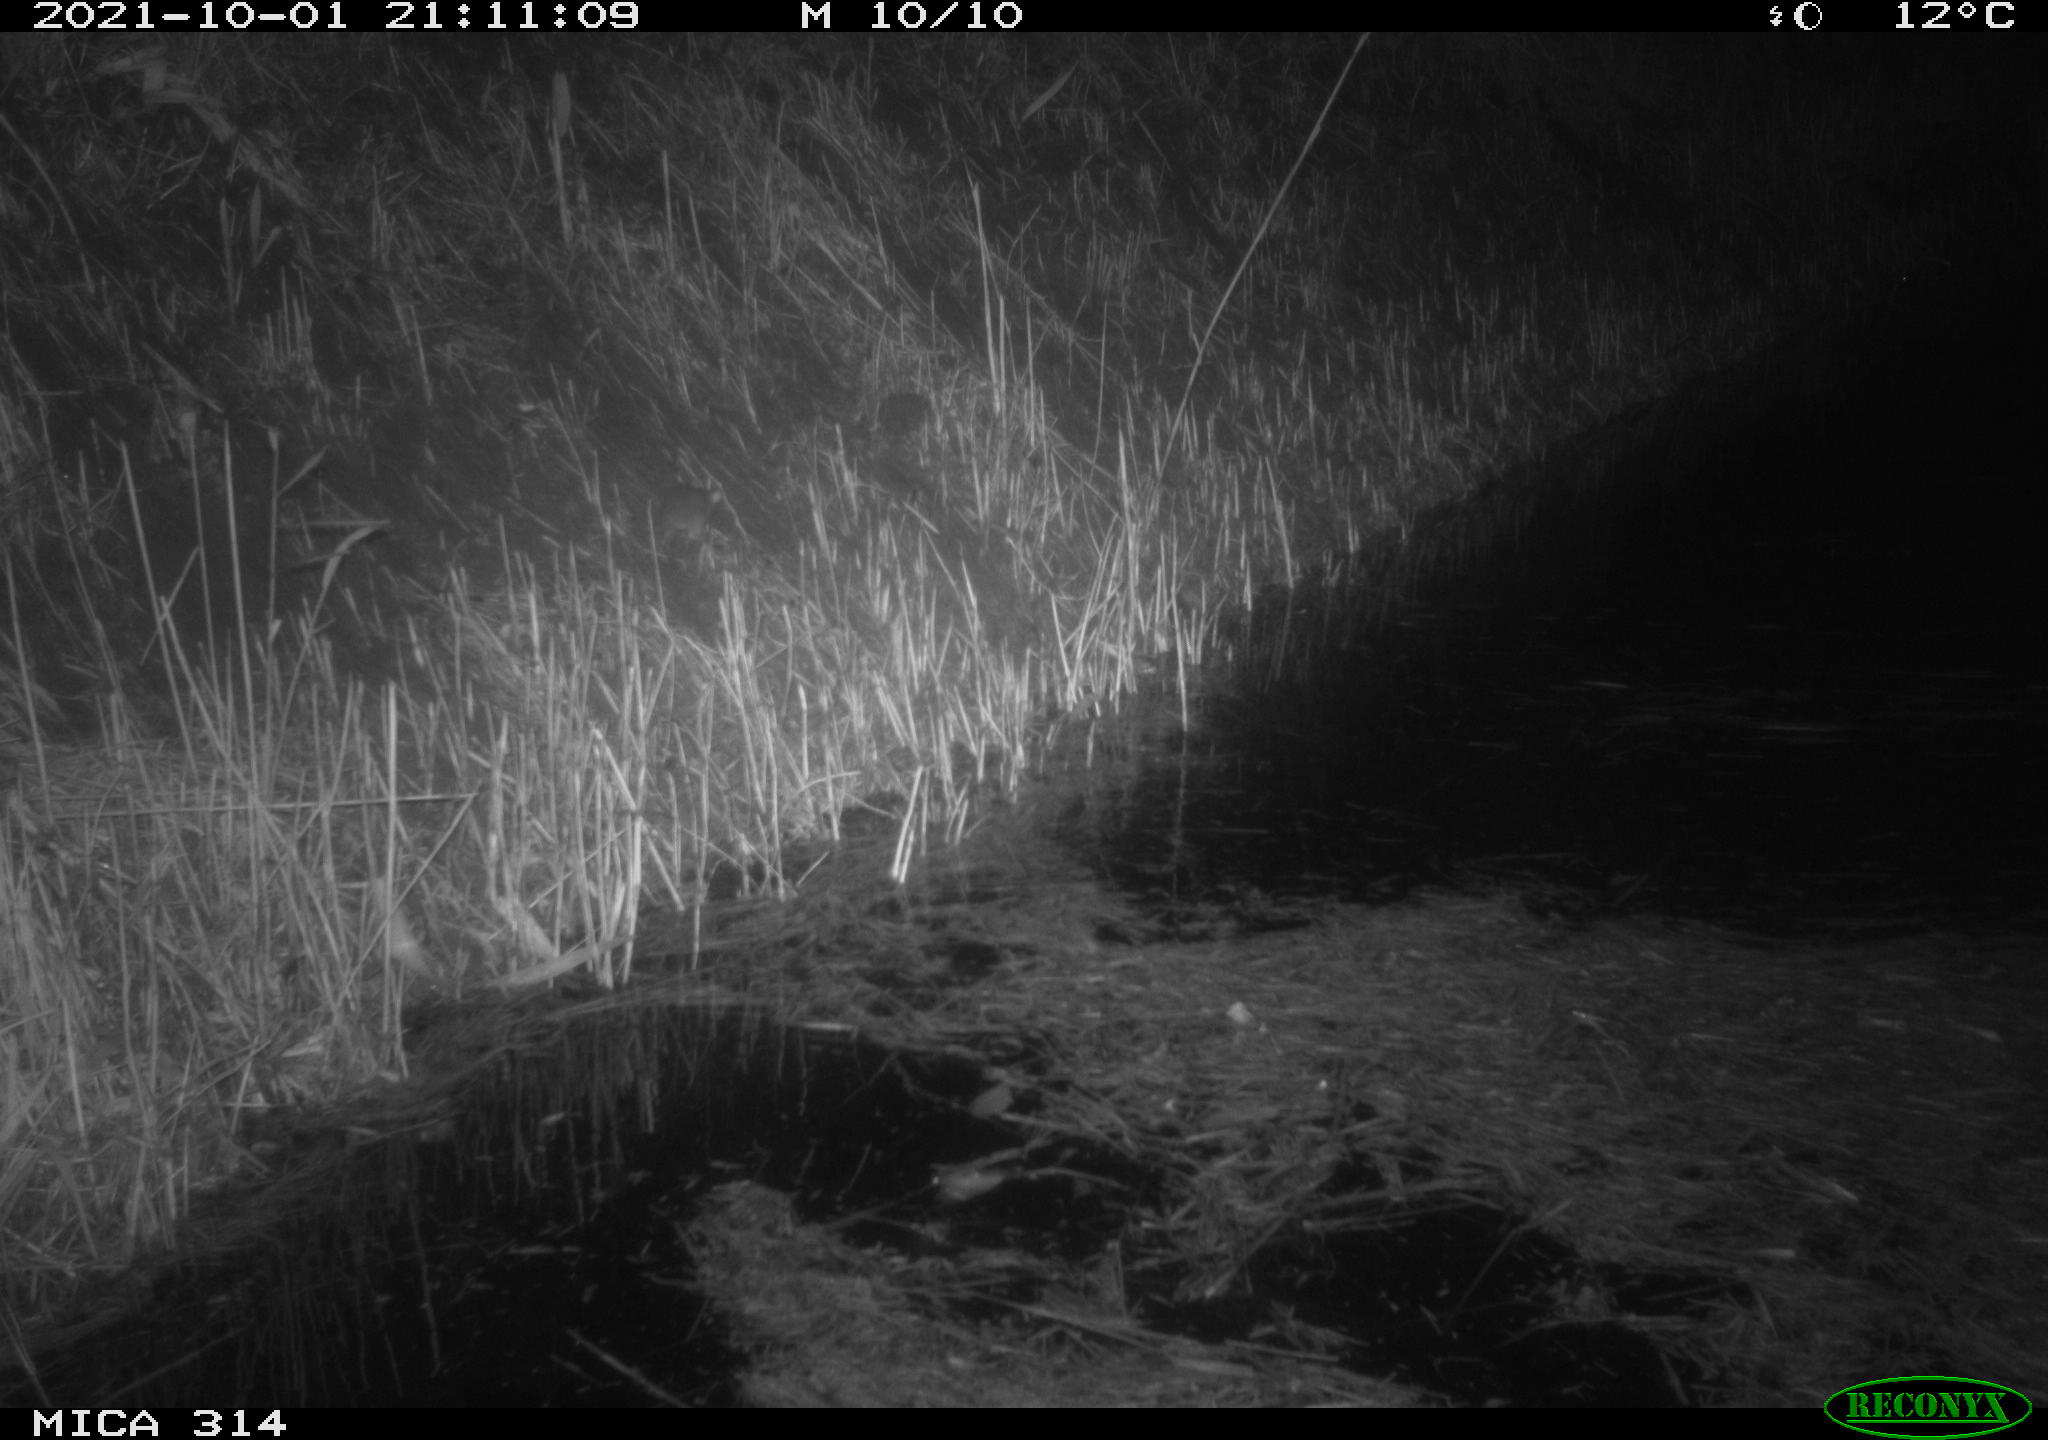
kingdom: Animalia
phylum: Chordata
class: Mammalia
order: Rodentia
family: Muridae
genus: Rattus
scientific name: Rattus norvegicus
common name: Brown rat
